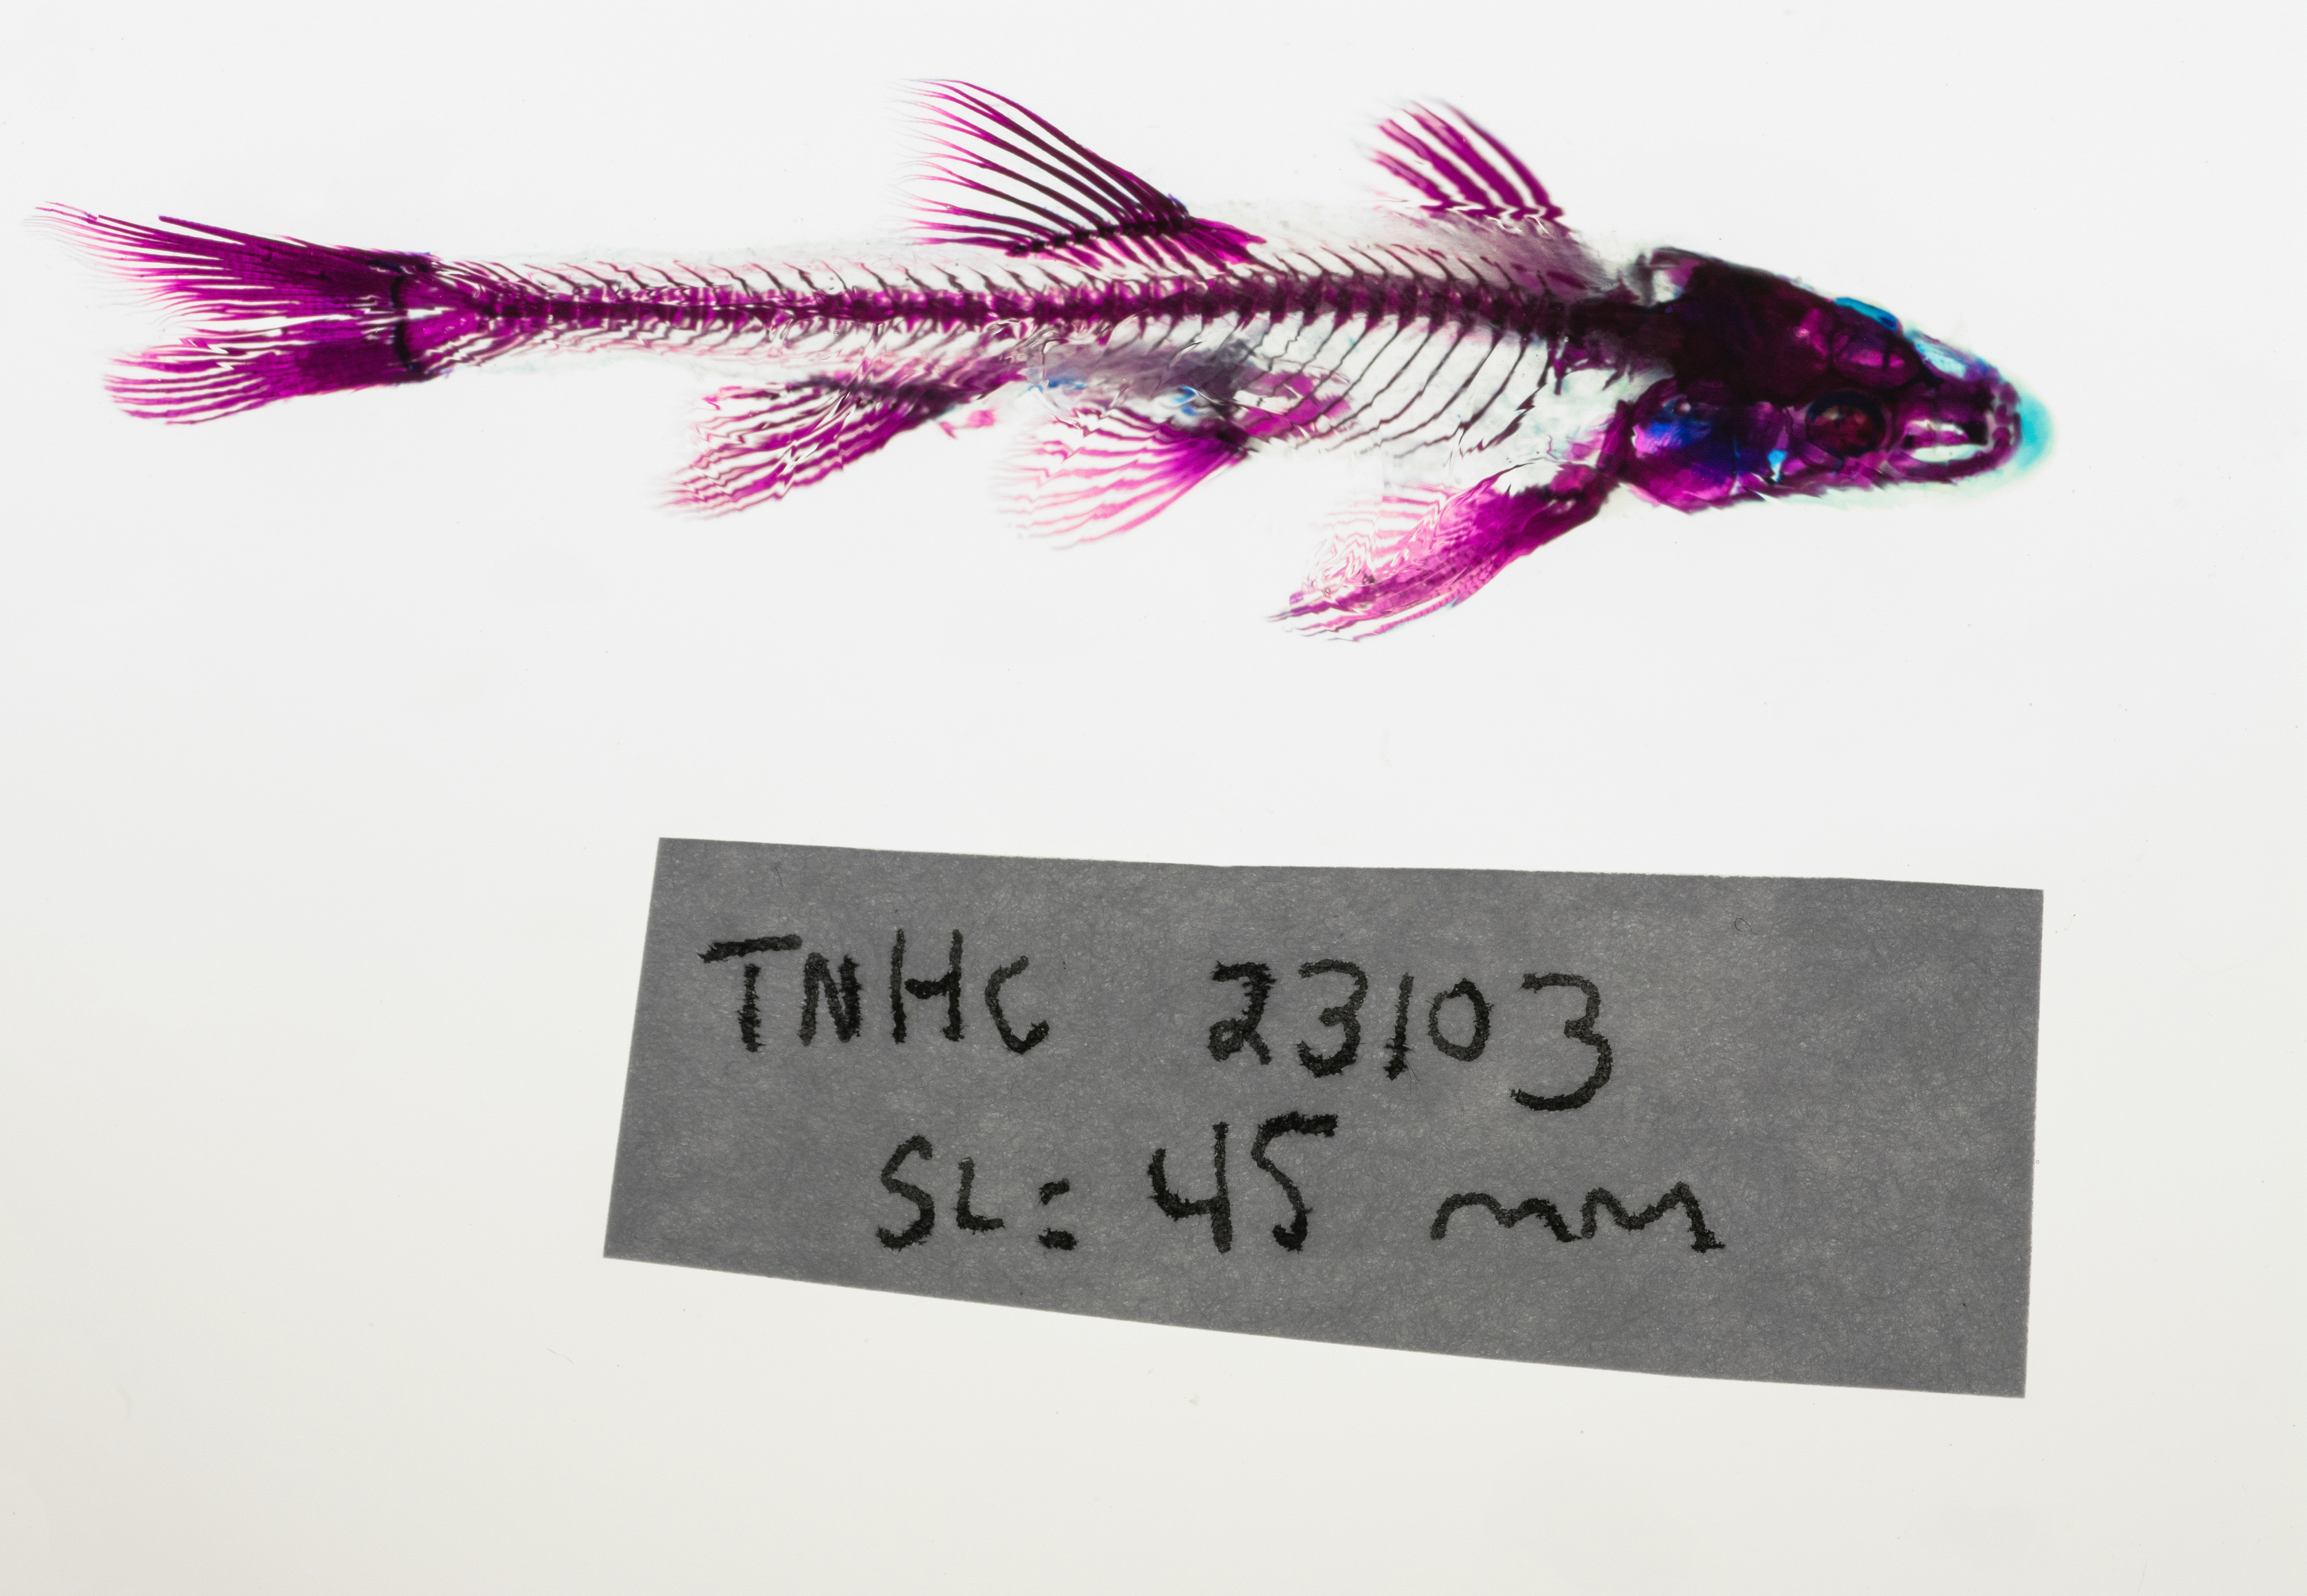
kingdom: Animalia
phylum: Chordata
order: Cypriniformes
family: Cyprinidae
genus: Rhinichthys
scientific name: Rhinichthys cataractae
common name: Longnose dace
